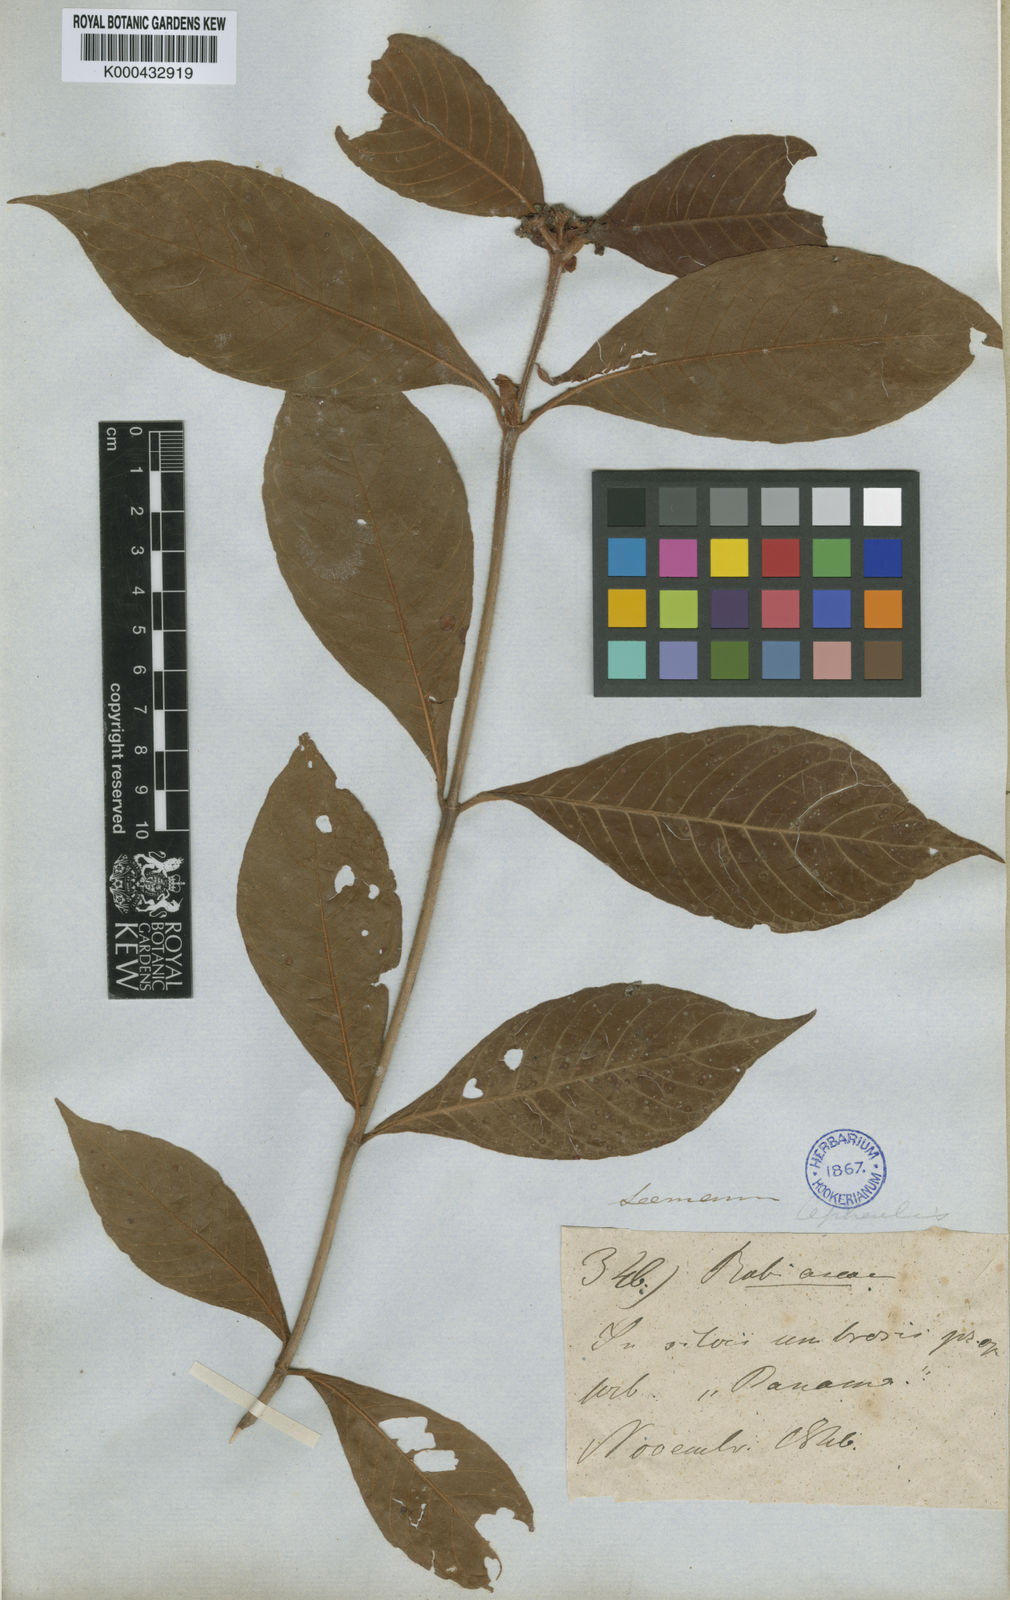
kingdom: Plantae
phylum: Tracheophyta
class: Magnoliopsida
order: Gentianales
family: Rubiaceae
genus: Psychotria
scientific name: Psychotria psychotriifolia
